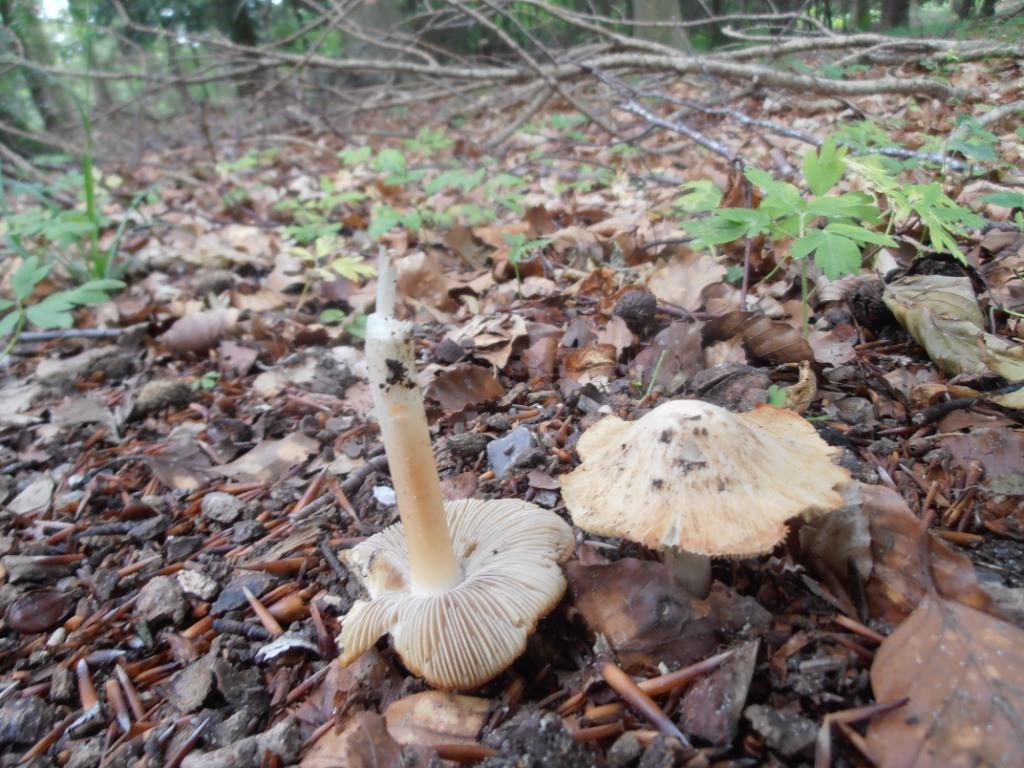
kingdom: Fungi
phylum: Basidiomycota
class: Agaricomycetes
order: Agaricales
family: Inocybaceae
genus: Inosperma
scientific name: Inosperma erubescens
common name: giftig trævlhat
